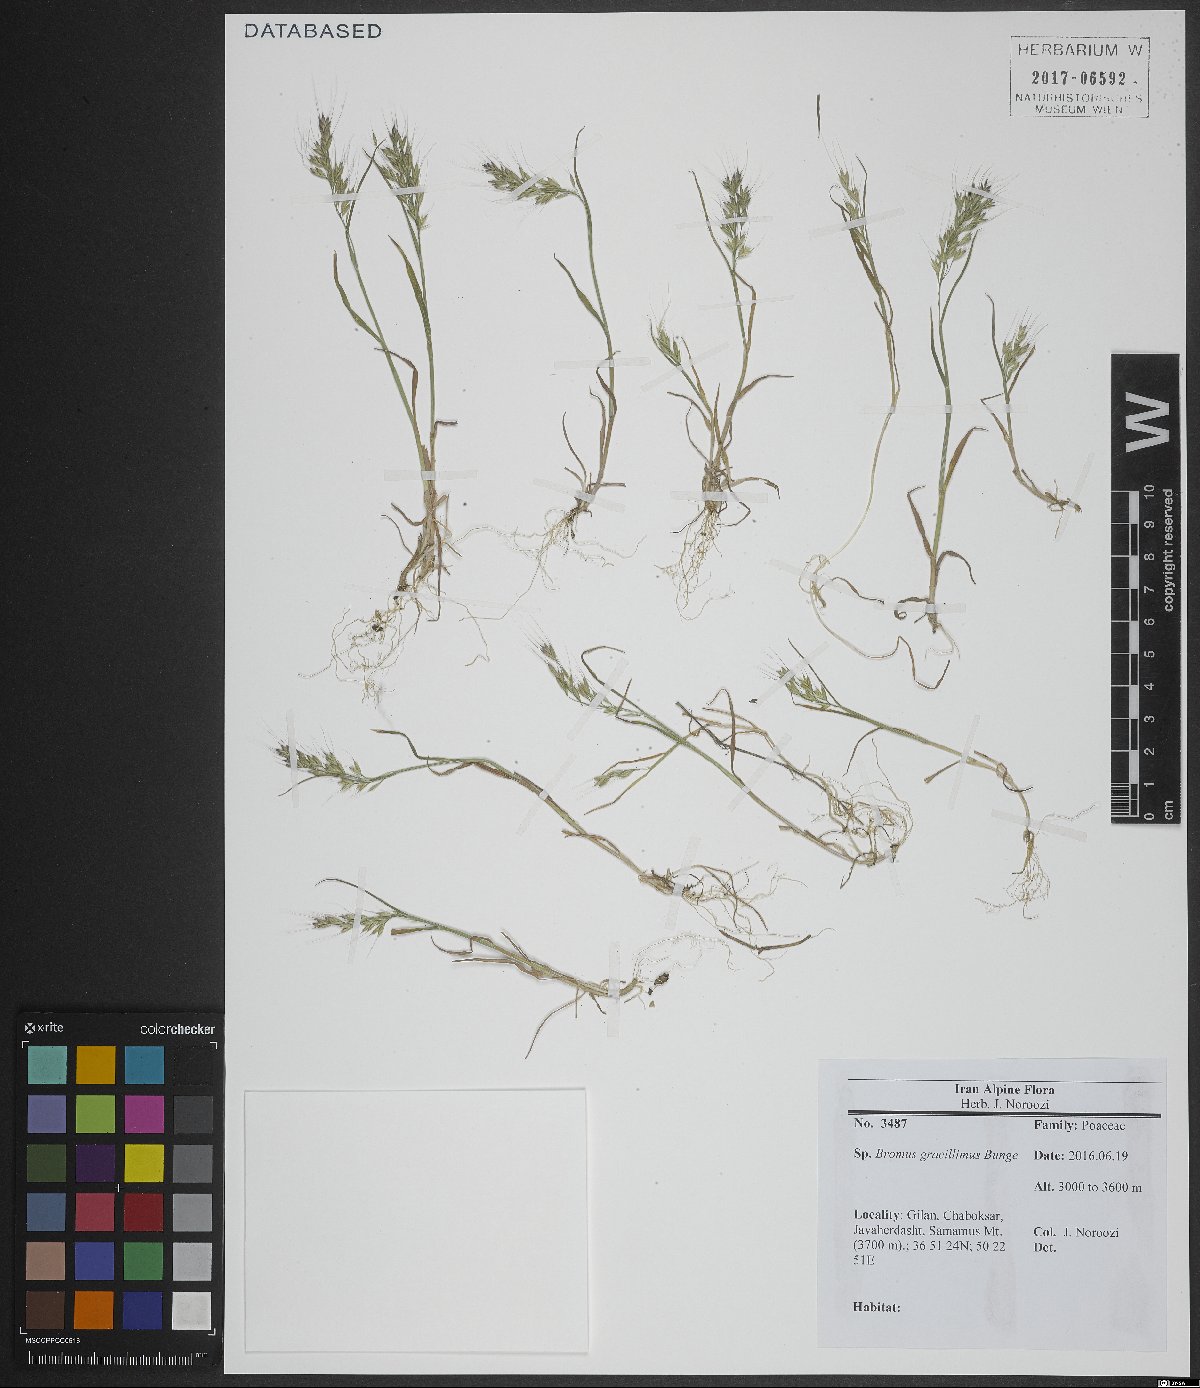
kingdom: Plantae
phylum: Tracheophyta
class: Liliopsida
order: Poales
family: Poaceae
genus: Bromus
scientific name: Bromus gracillimus
